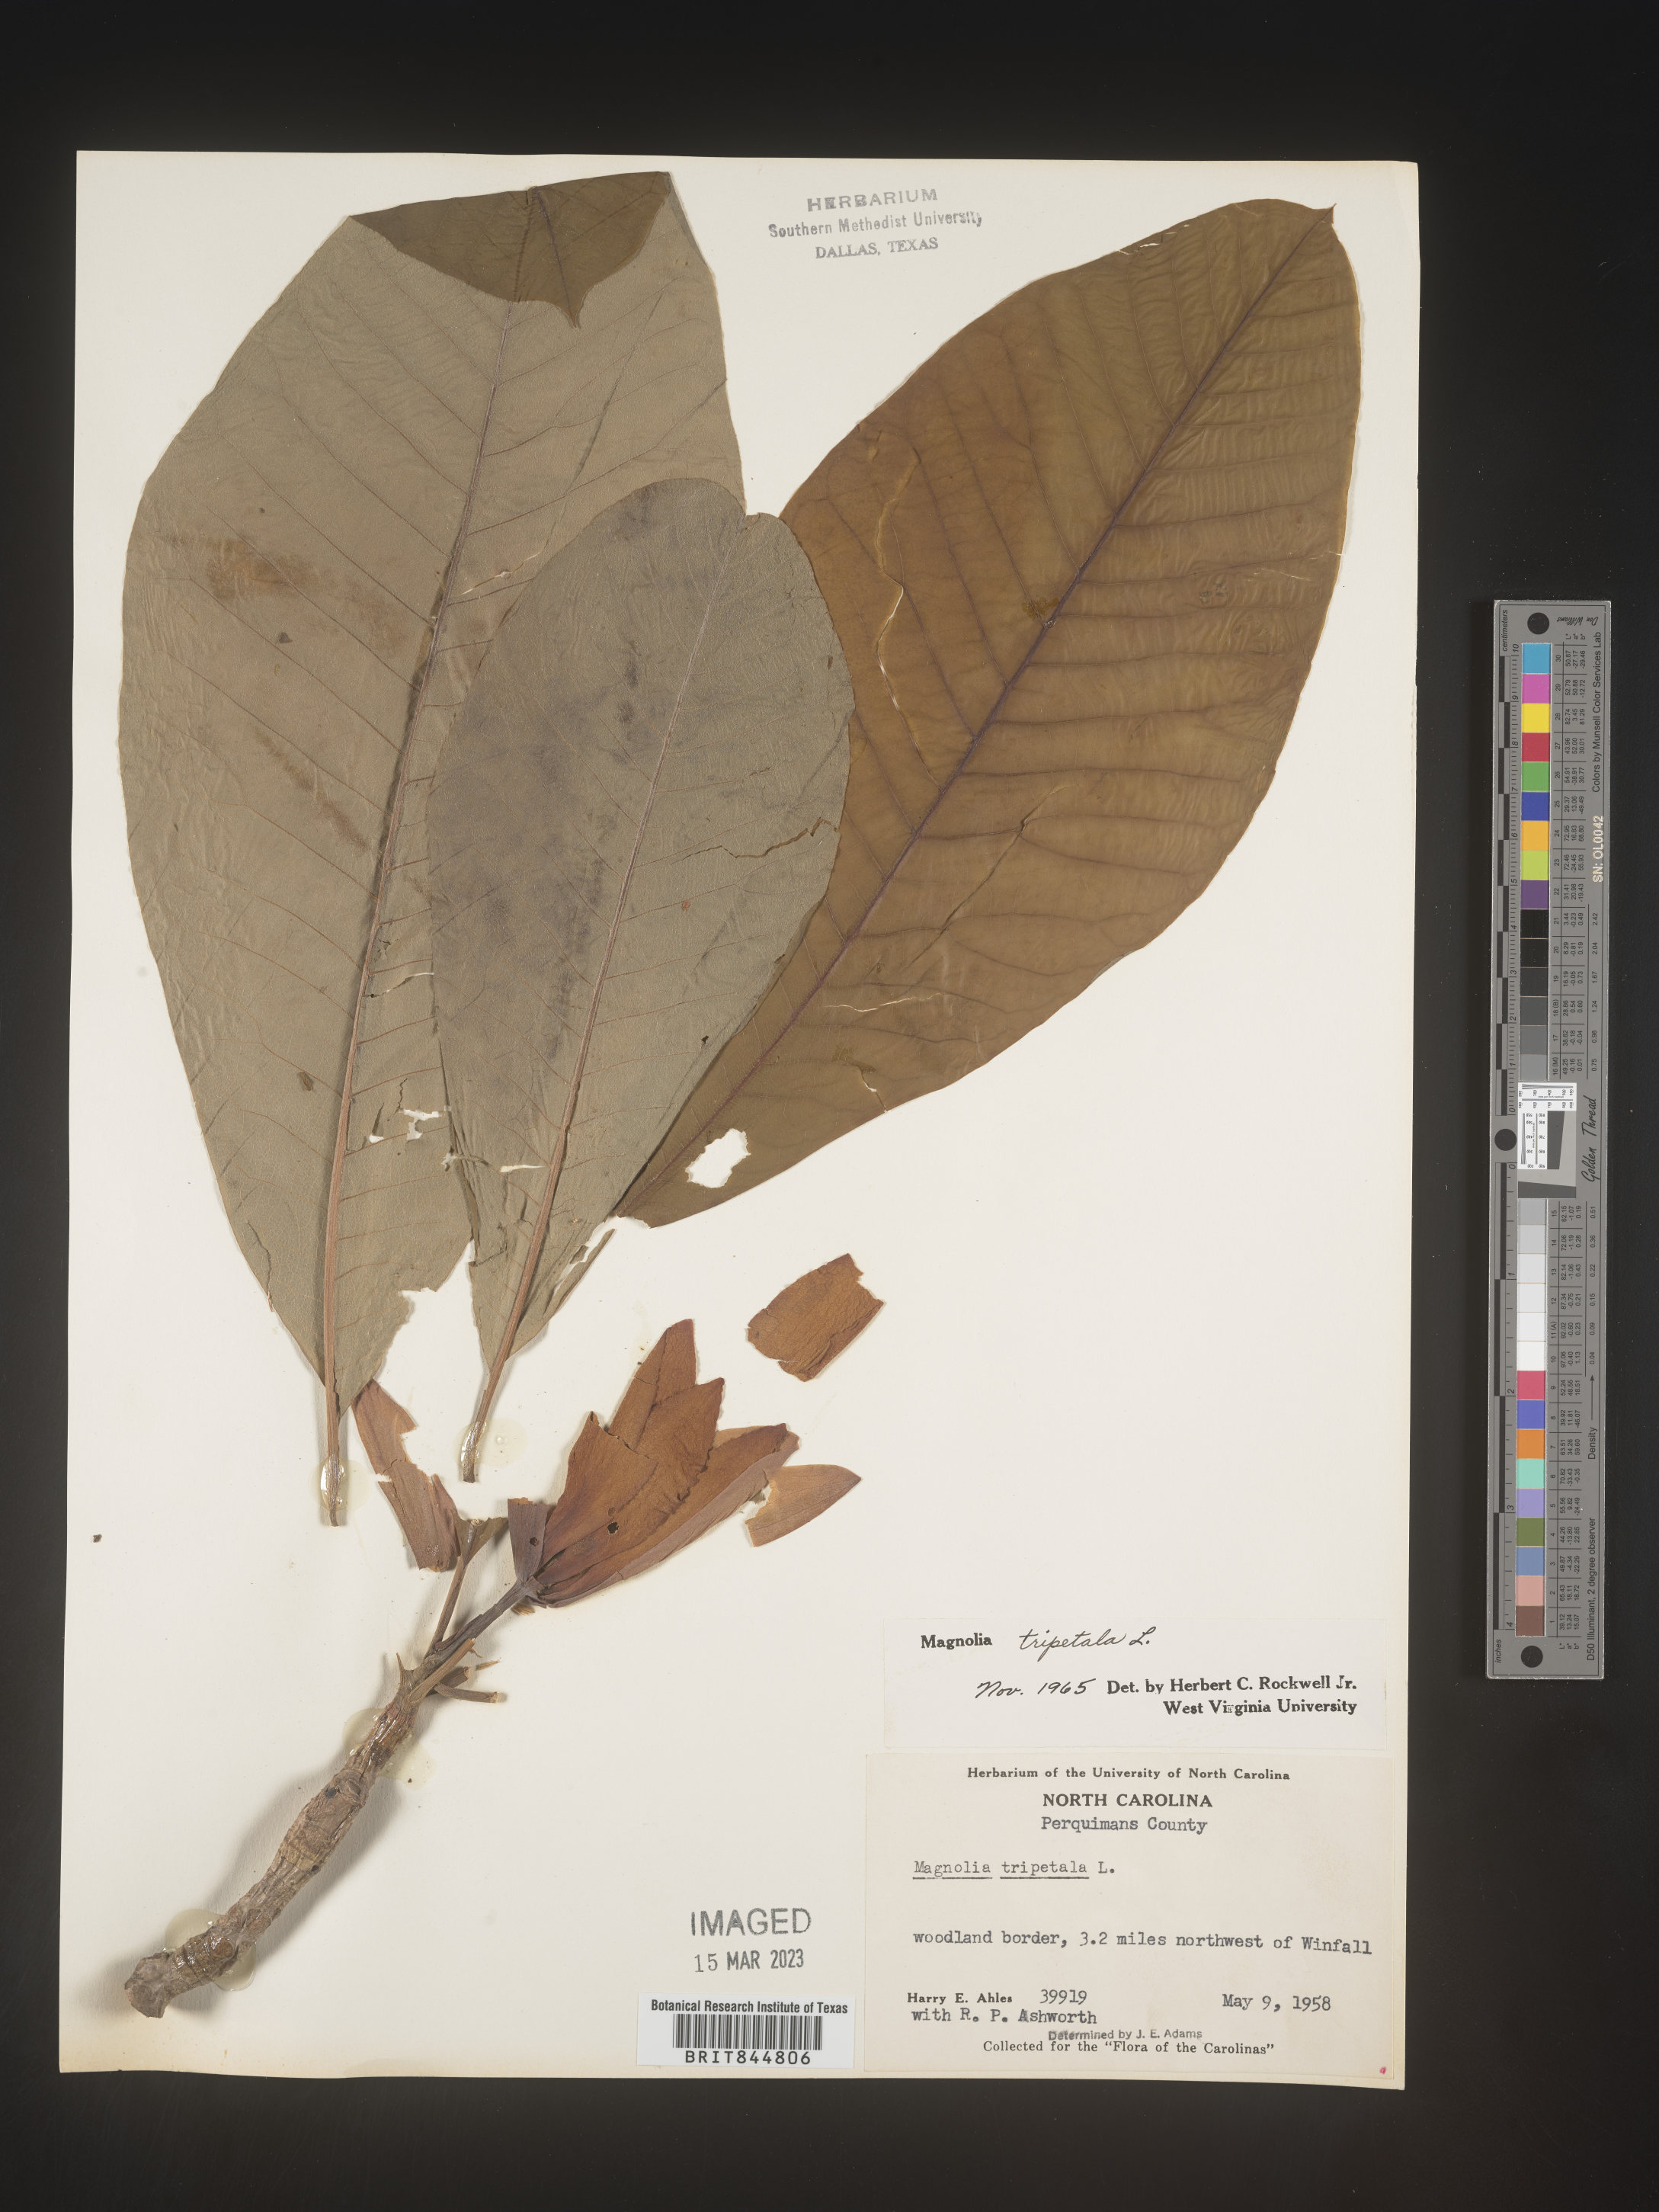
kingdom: Plantae
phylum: Tracheophyta
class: Magnoliopsida
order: Magnoliales
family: Magnoliaceae
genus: Magnolia
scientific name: Magnolia tripetala
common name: Umbrella magnolia
